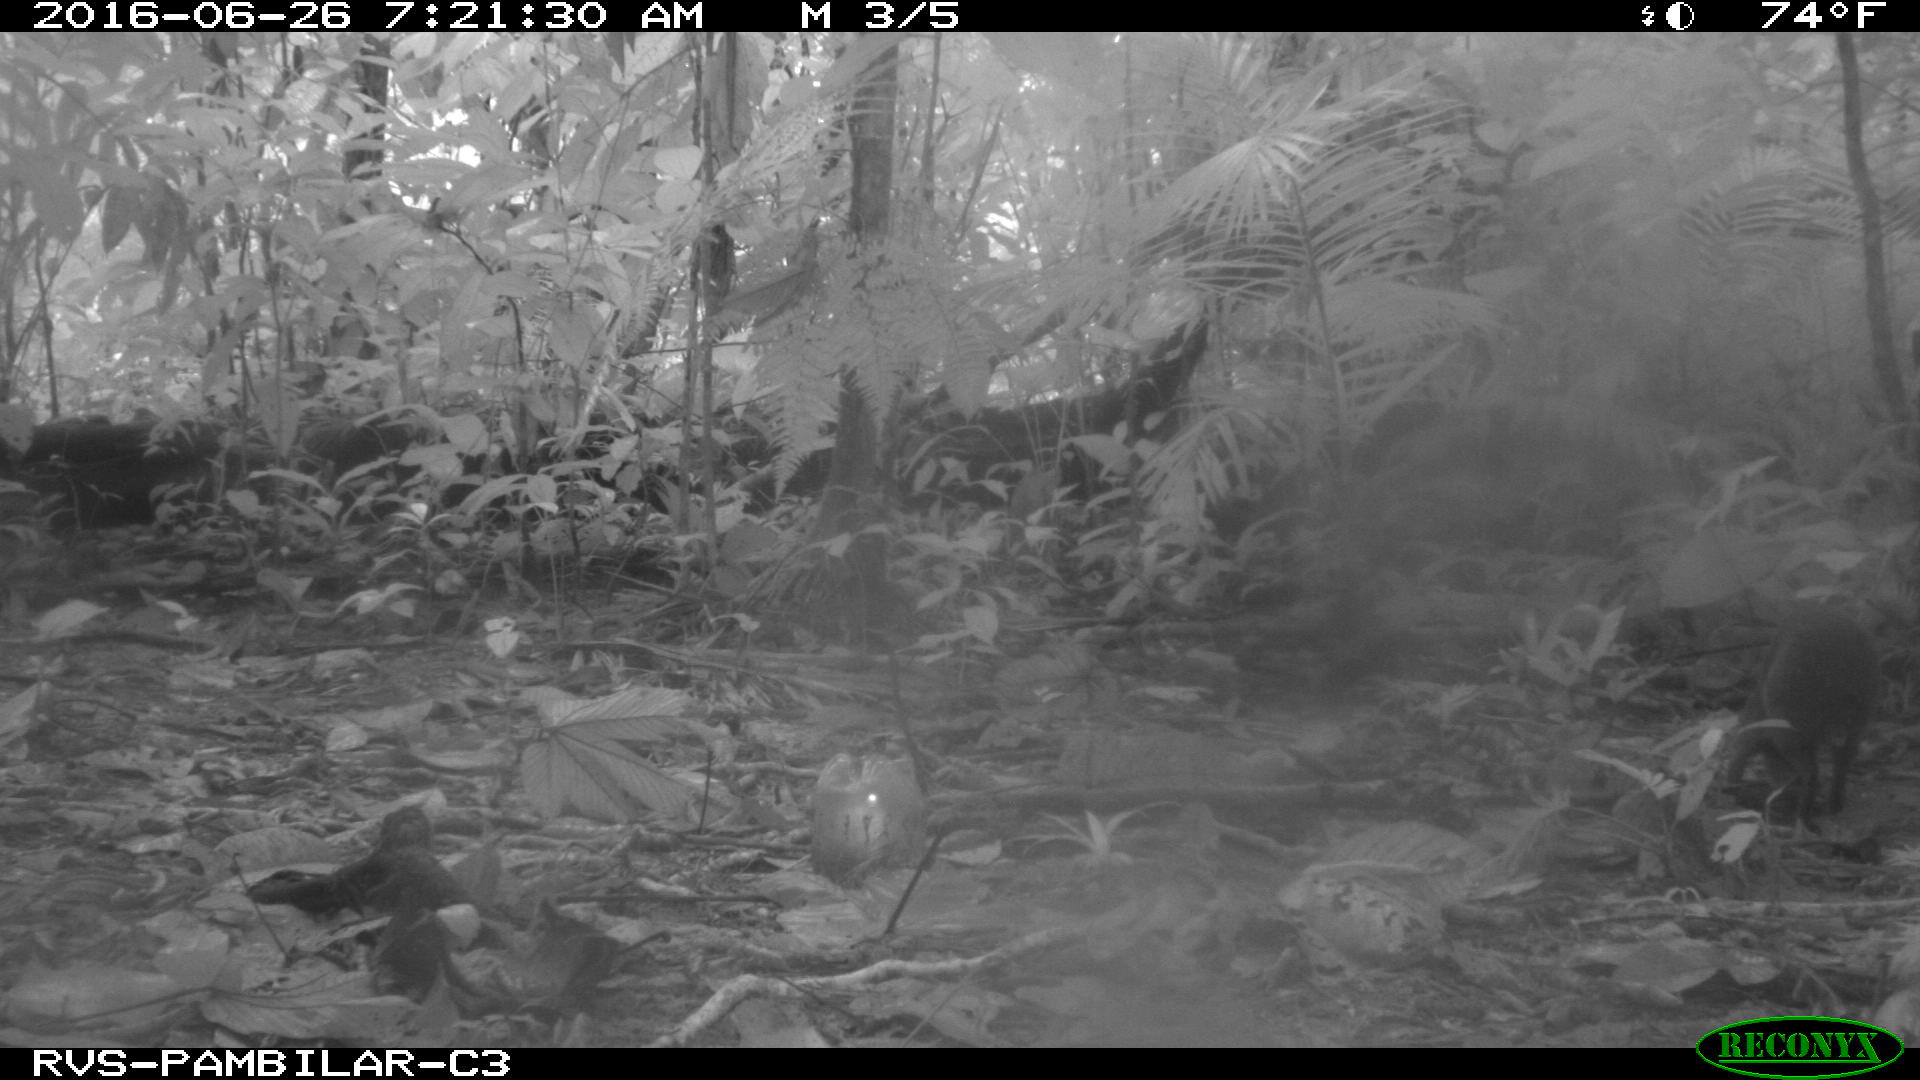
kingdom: Animalia
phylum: Chordata
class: Mammalia
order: Rodentia
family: Dasyproctidae
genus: Dasyprocta
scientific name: Dasyprocta punctata
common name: Central american agouti
